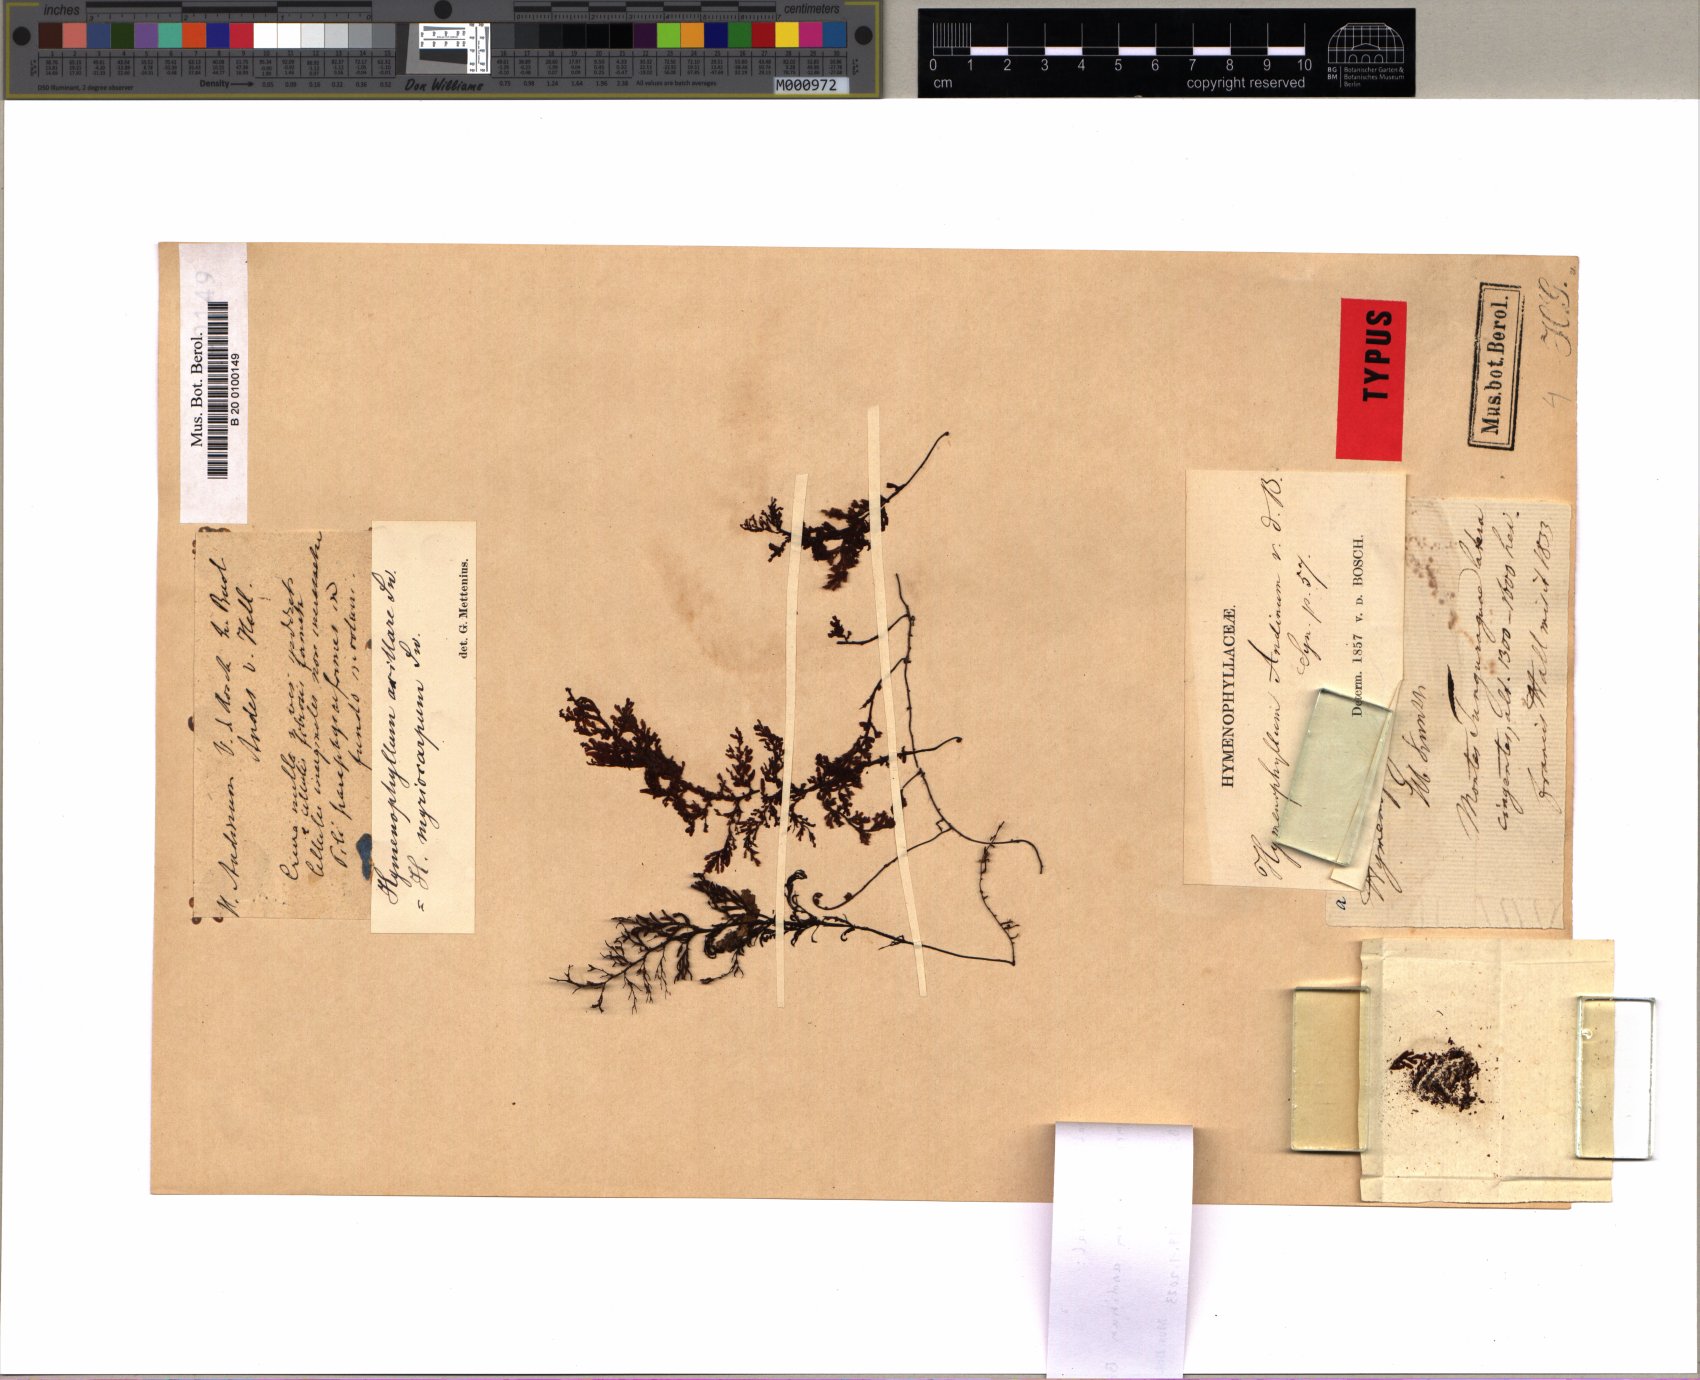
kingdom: Plantae
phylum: Tracheophyta
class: Polypodiopsida
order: Hymenophyllales
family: Hymenophyllaceae
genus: Hymenophyllum
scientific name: Hymenophyllum andinum
